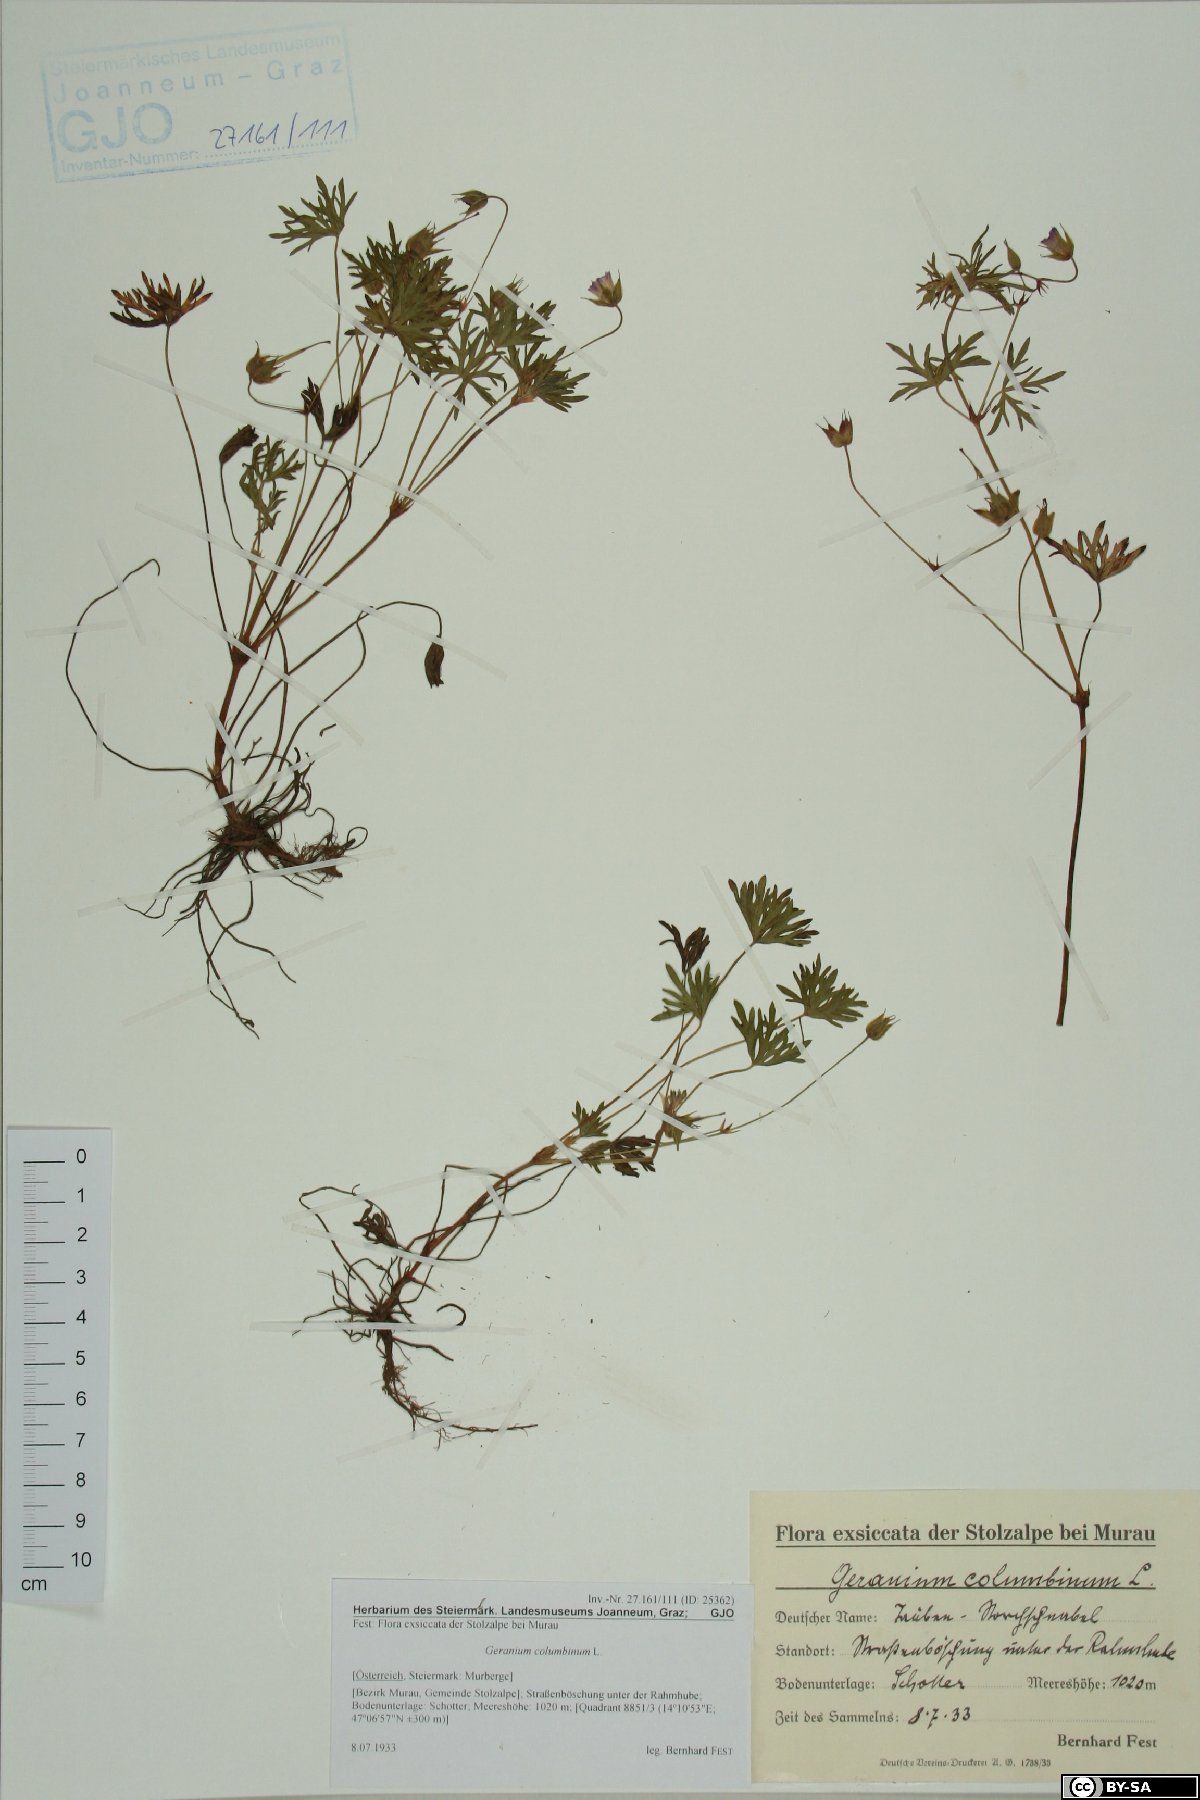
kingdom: Plantae
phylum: Tracheophyta
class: Magnoliopsida
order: Geraniales
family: Geraniaceae
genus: Geranium
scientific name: Geranium columbinum
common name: Long-stalked crane's-bill
